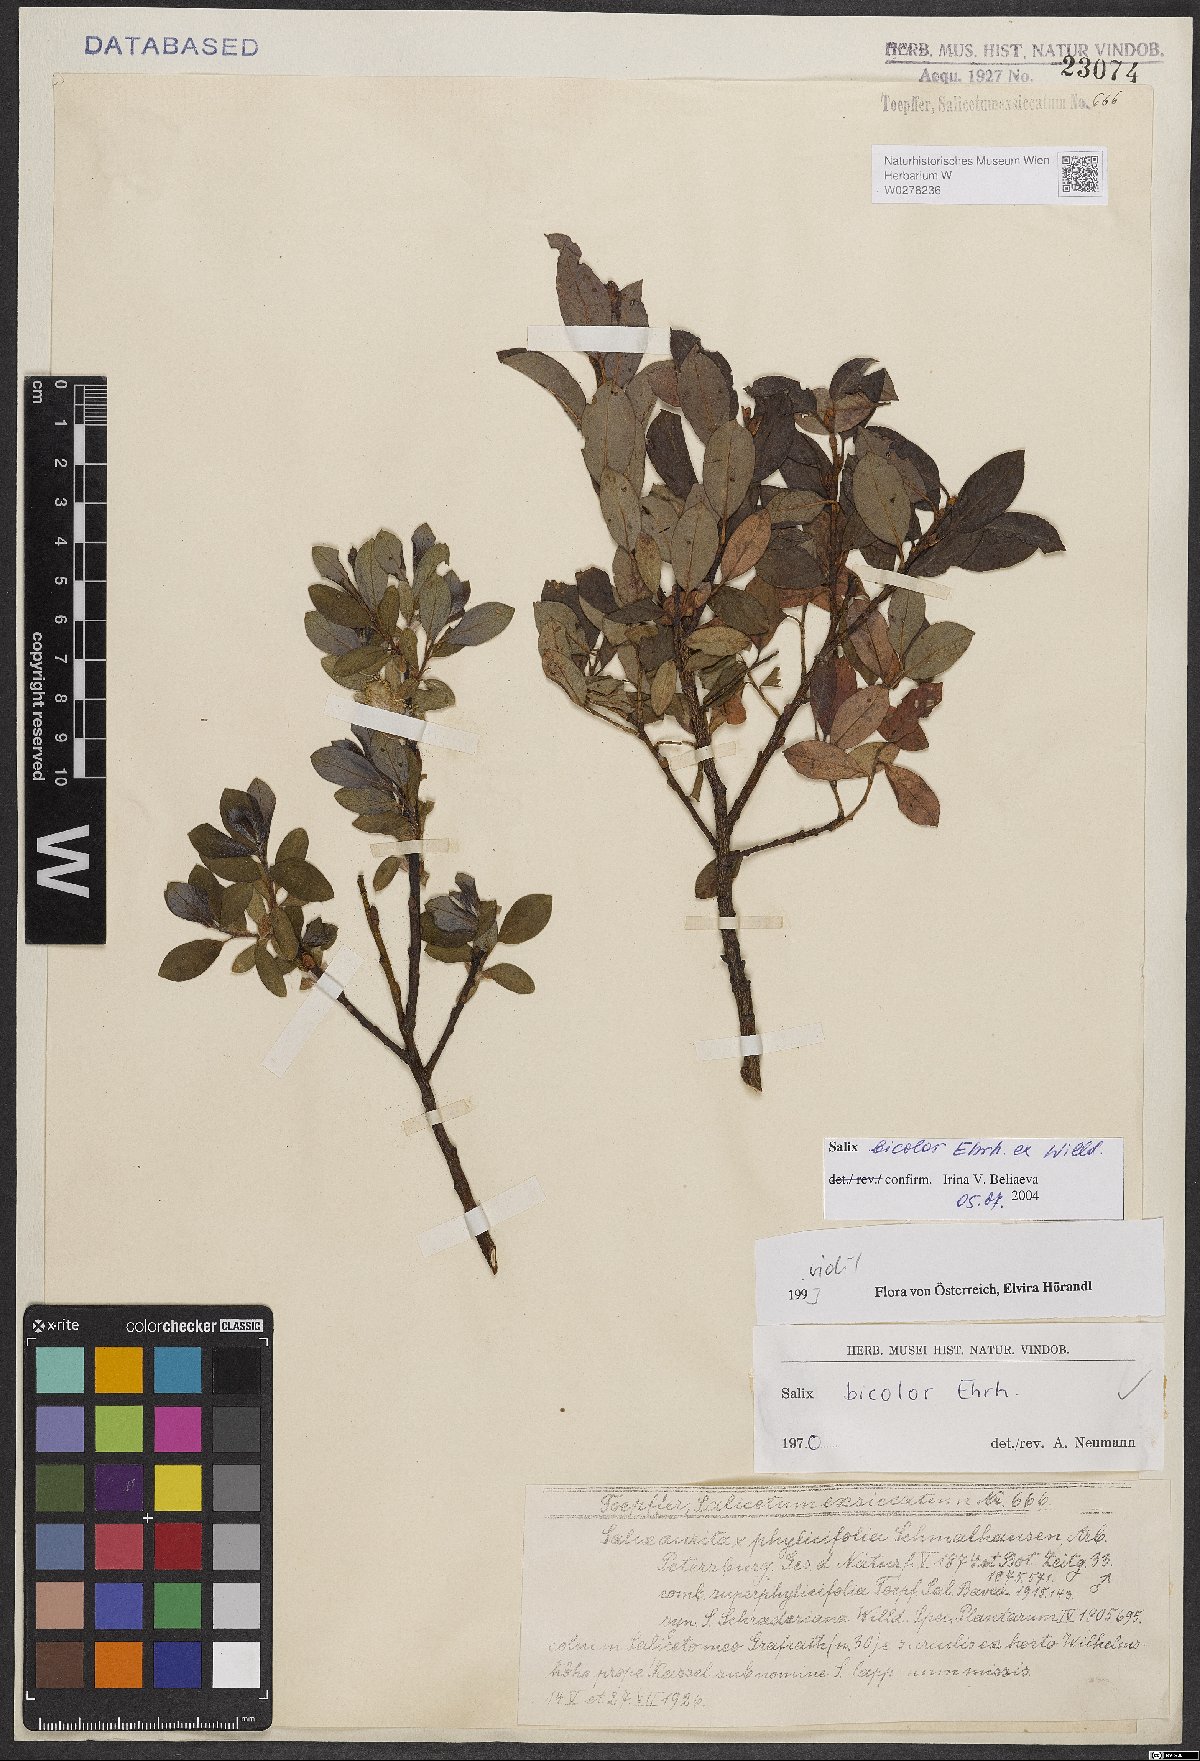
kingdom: Plantae
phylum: Tracheophyta
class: Magnoliopsida
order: Malpighiales
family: Salicaceae
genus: Salix
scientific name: Salix bicolor
